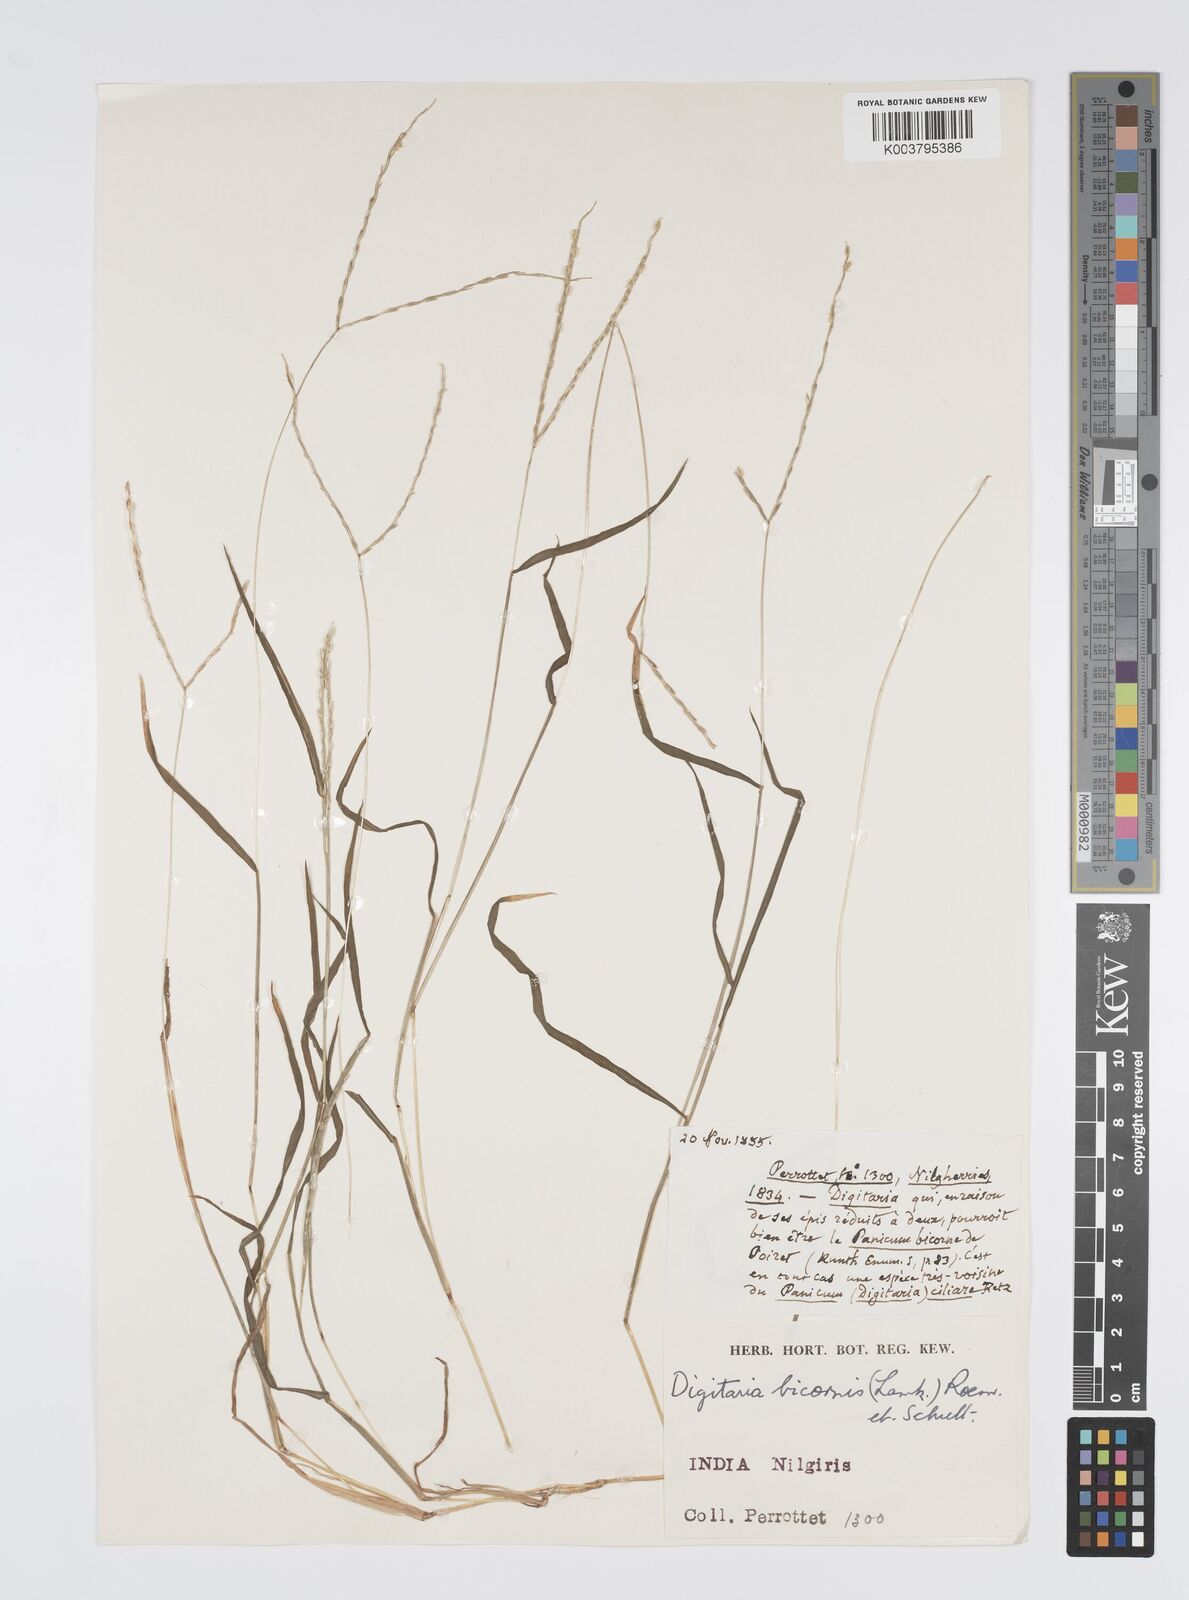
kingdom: Plantae
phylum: Tracheophyta
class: Liliopsida
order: Poales
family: Poaceae
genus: Digitaria
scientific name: Digitaria ciliaris
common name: Tropical finger-grass
